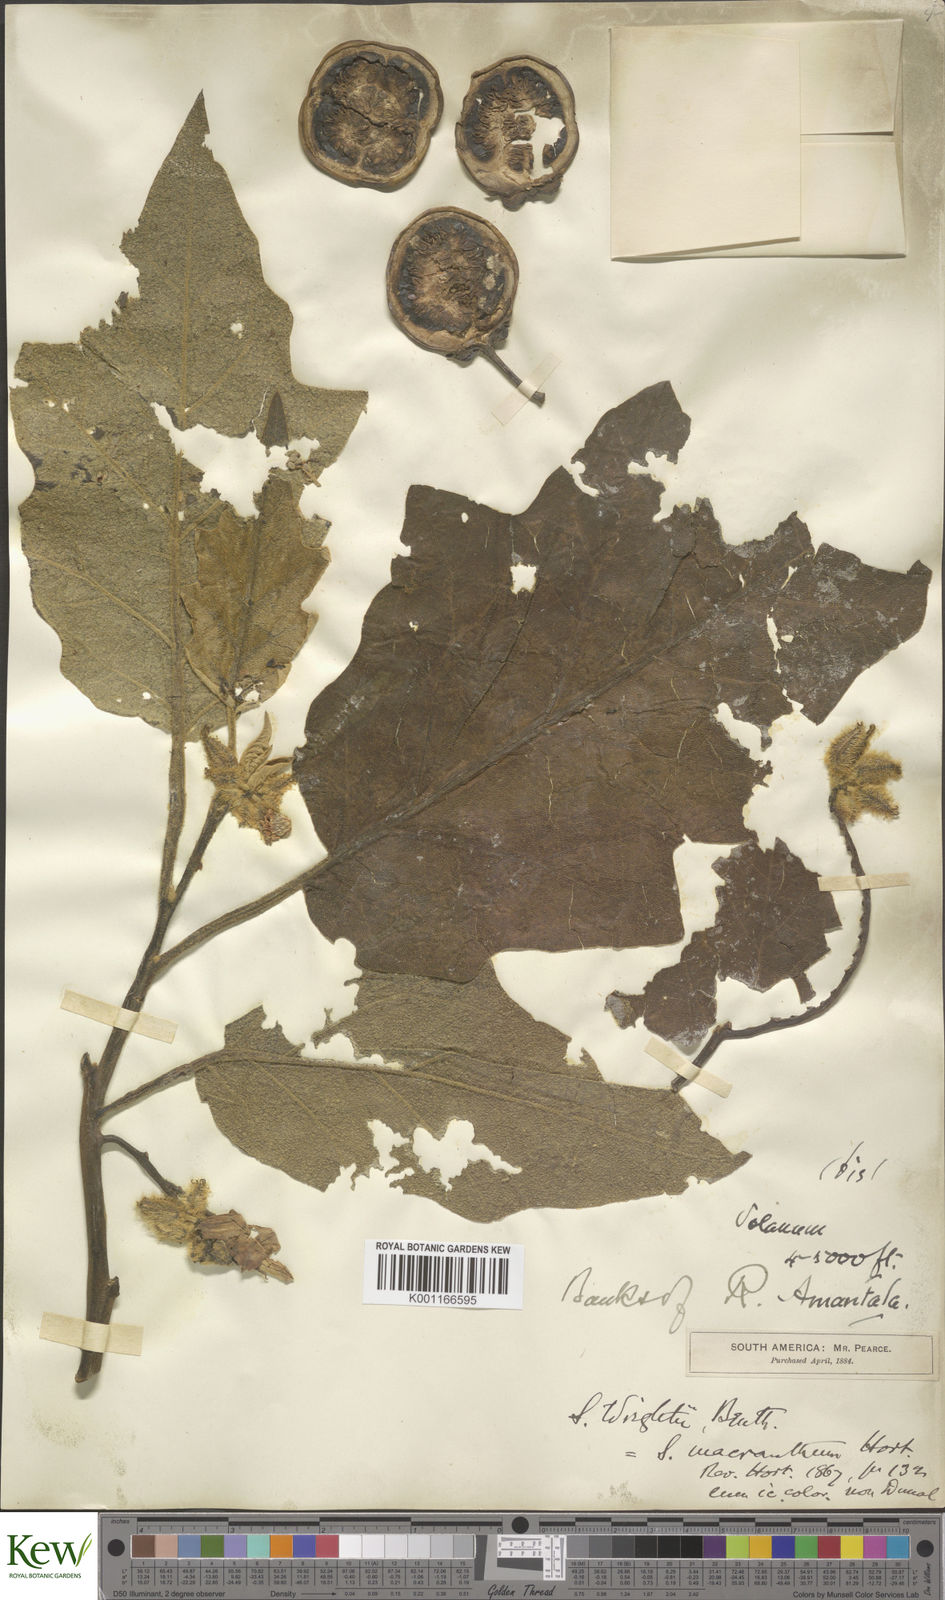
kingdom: Plantae
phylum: Tracheophyta
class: Magnoliopsida
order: Solanales
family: Solanaceae
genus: Solanum
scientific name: Solanum wrightii
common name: Brazilian potato-tree
